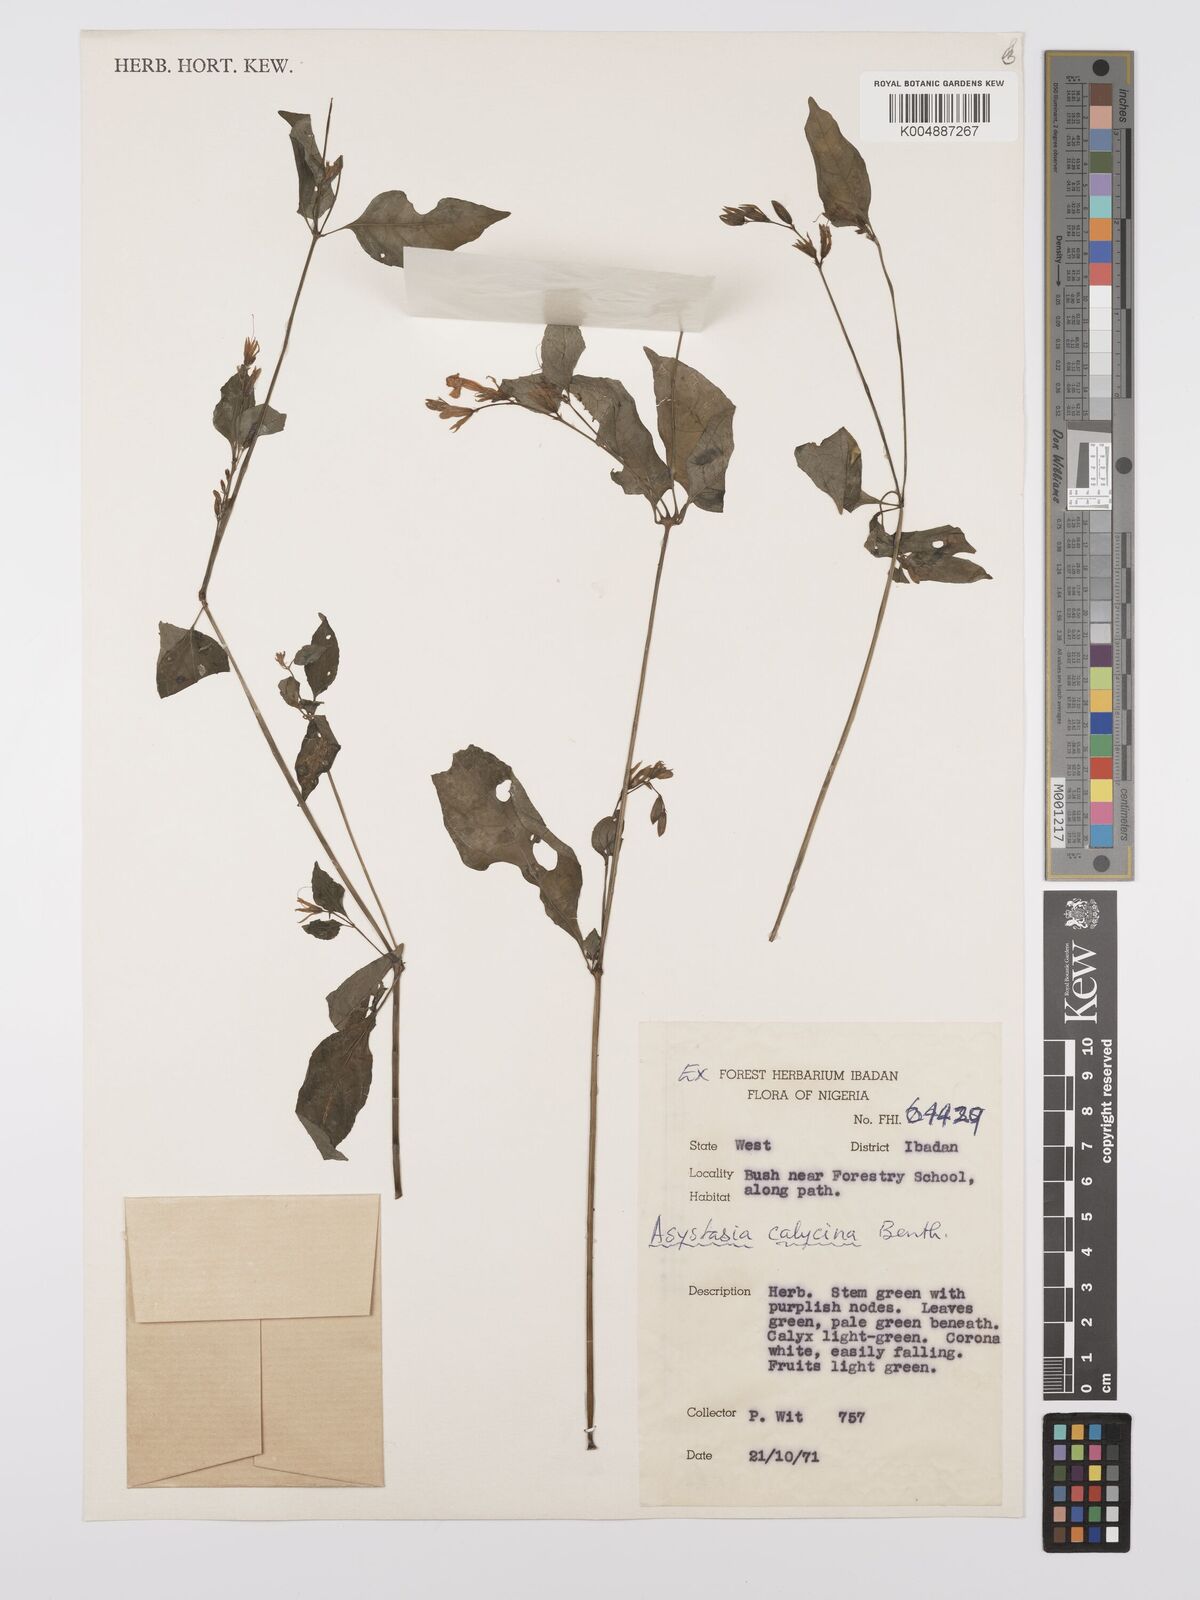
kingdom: Plantae
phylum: Tracheophyta
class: Magnoliopsida
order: Lamiales
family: Acanthaceae
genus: Asystasia
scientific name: Asystasia buettneri
